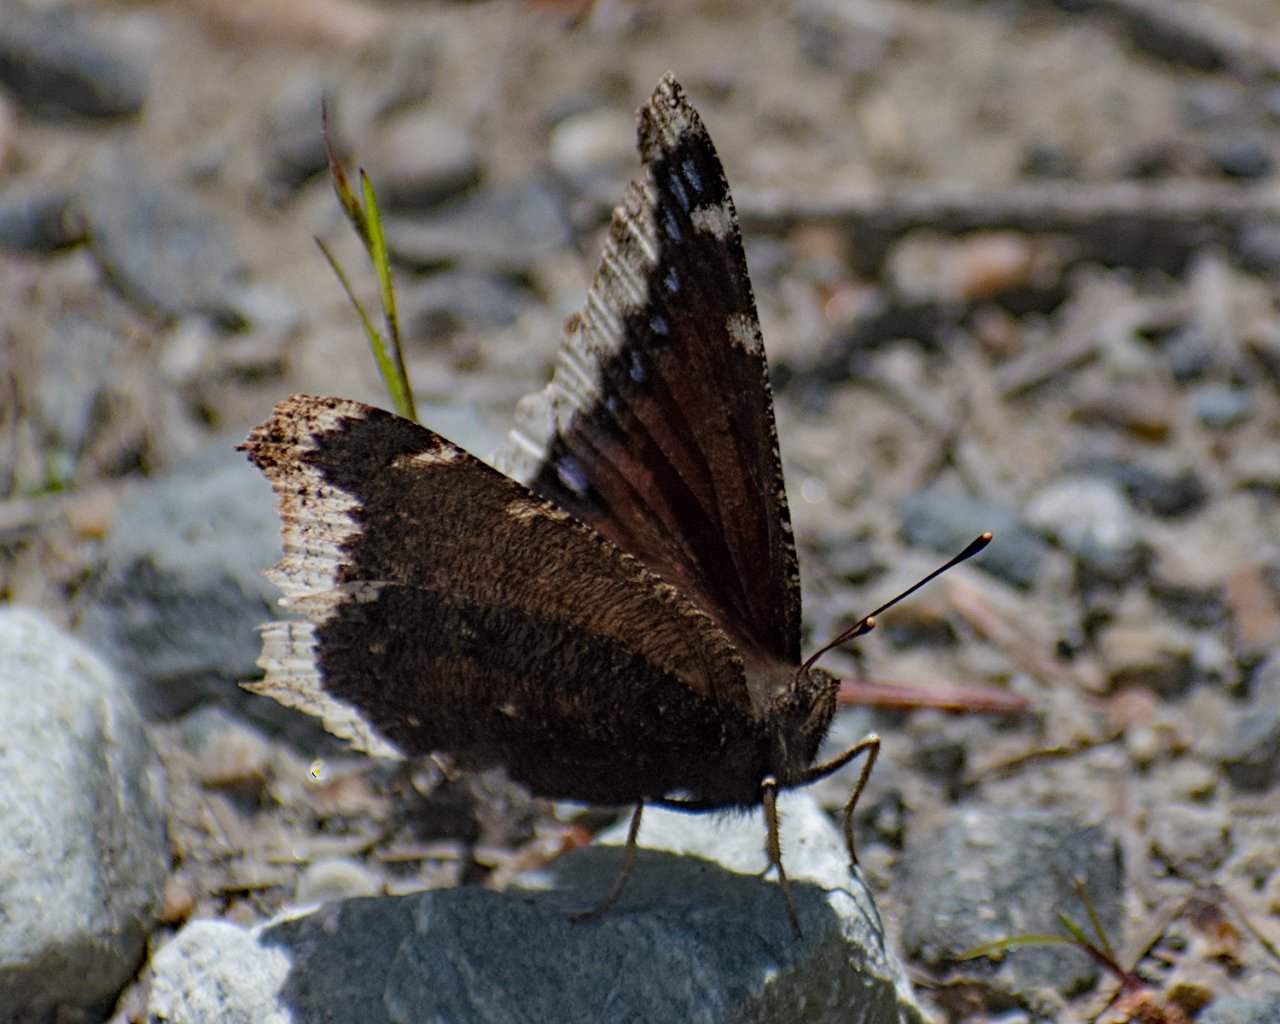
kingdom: Animalia
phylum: Arthropoda
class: Insecta
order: Lepidoptera
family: Nymphalidae
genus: Nymphalis
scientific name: Nymphalis antiopa
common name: Mourning Cloak
